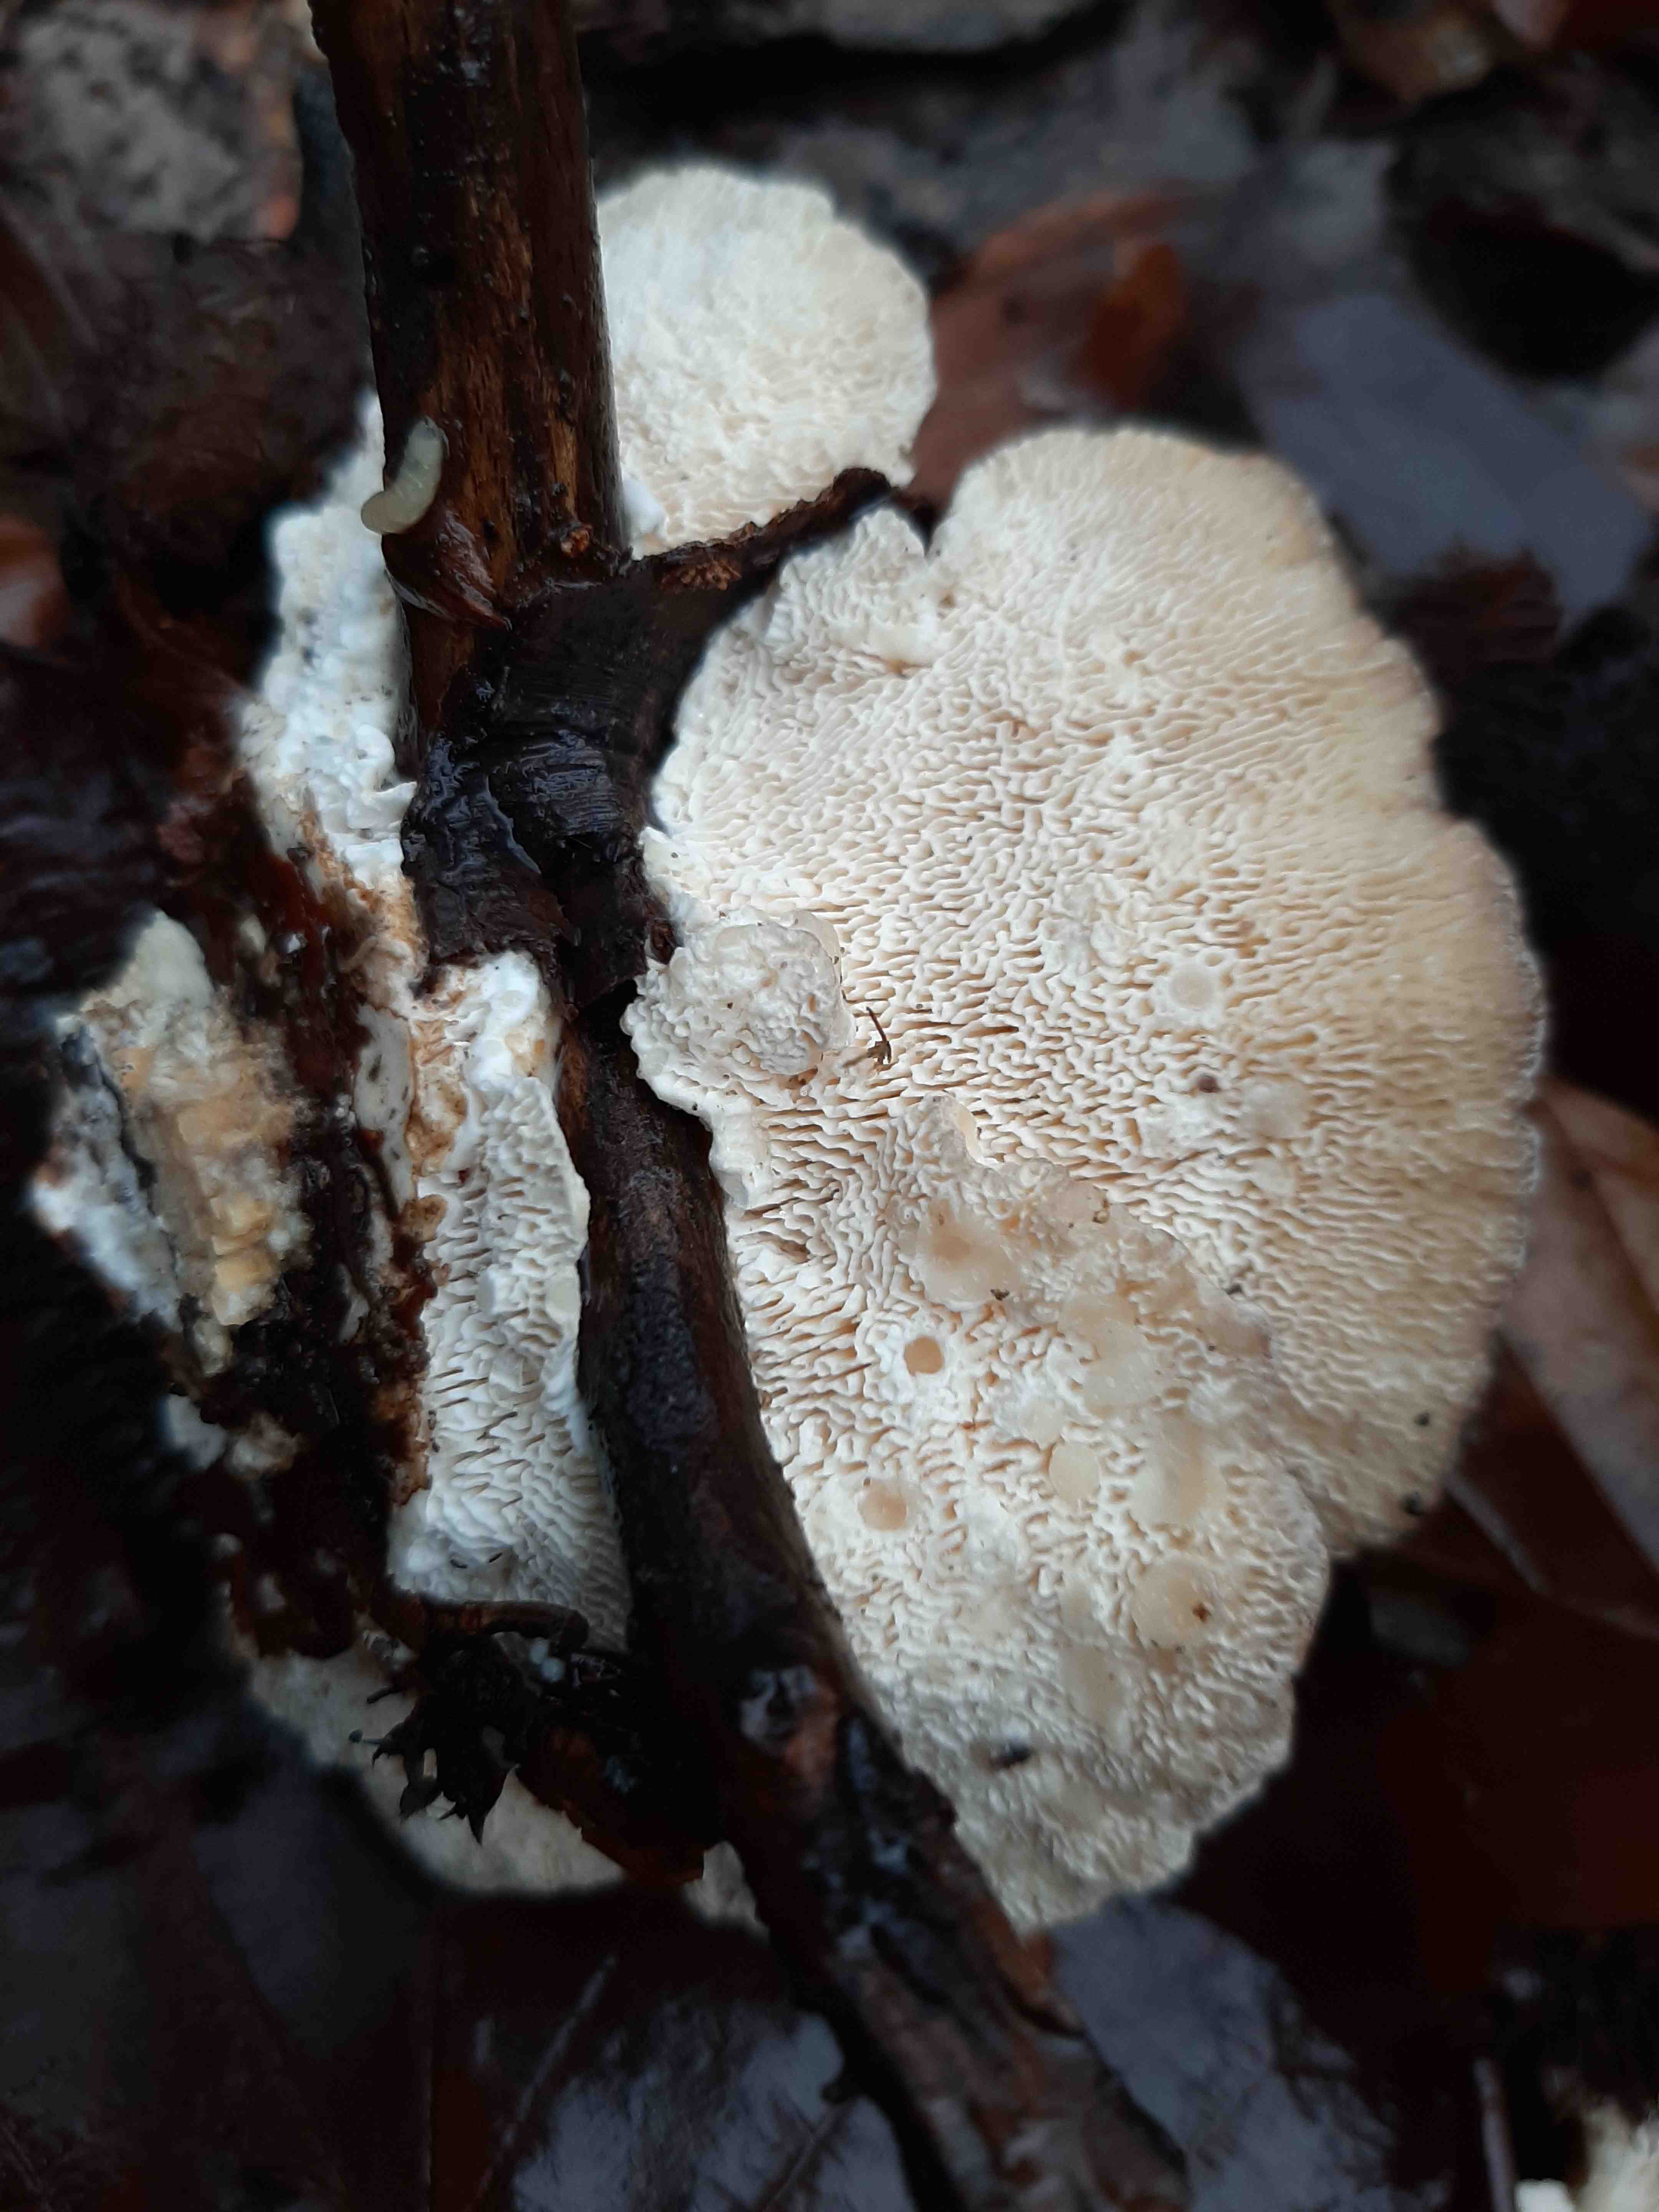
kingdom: Fungi
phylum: Basidiomycota
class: Agaricomycetes
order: Polyporales
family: Polyporaceae
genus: Trametes
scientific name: Trametes gibbosa
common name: puklet læderporesvamp
